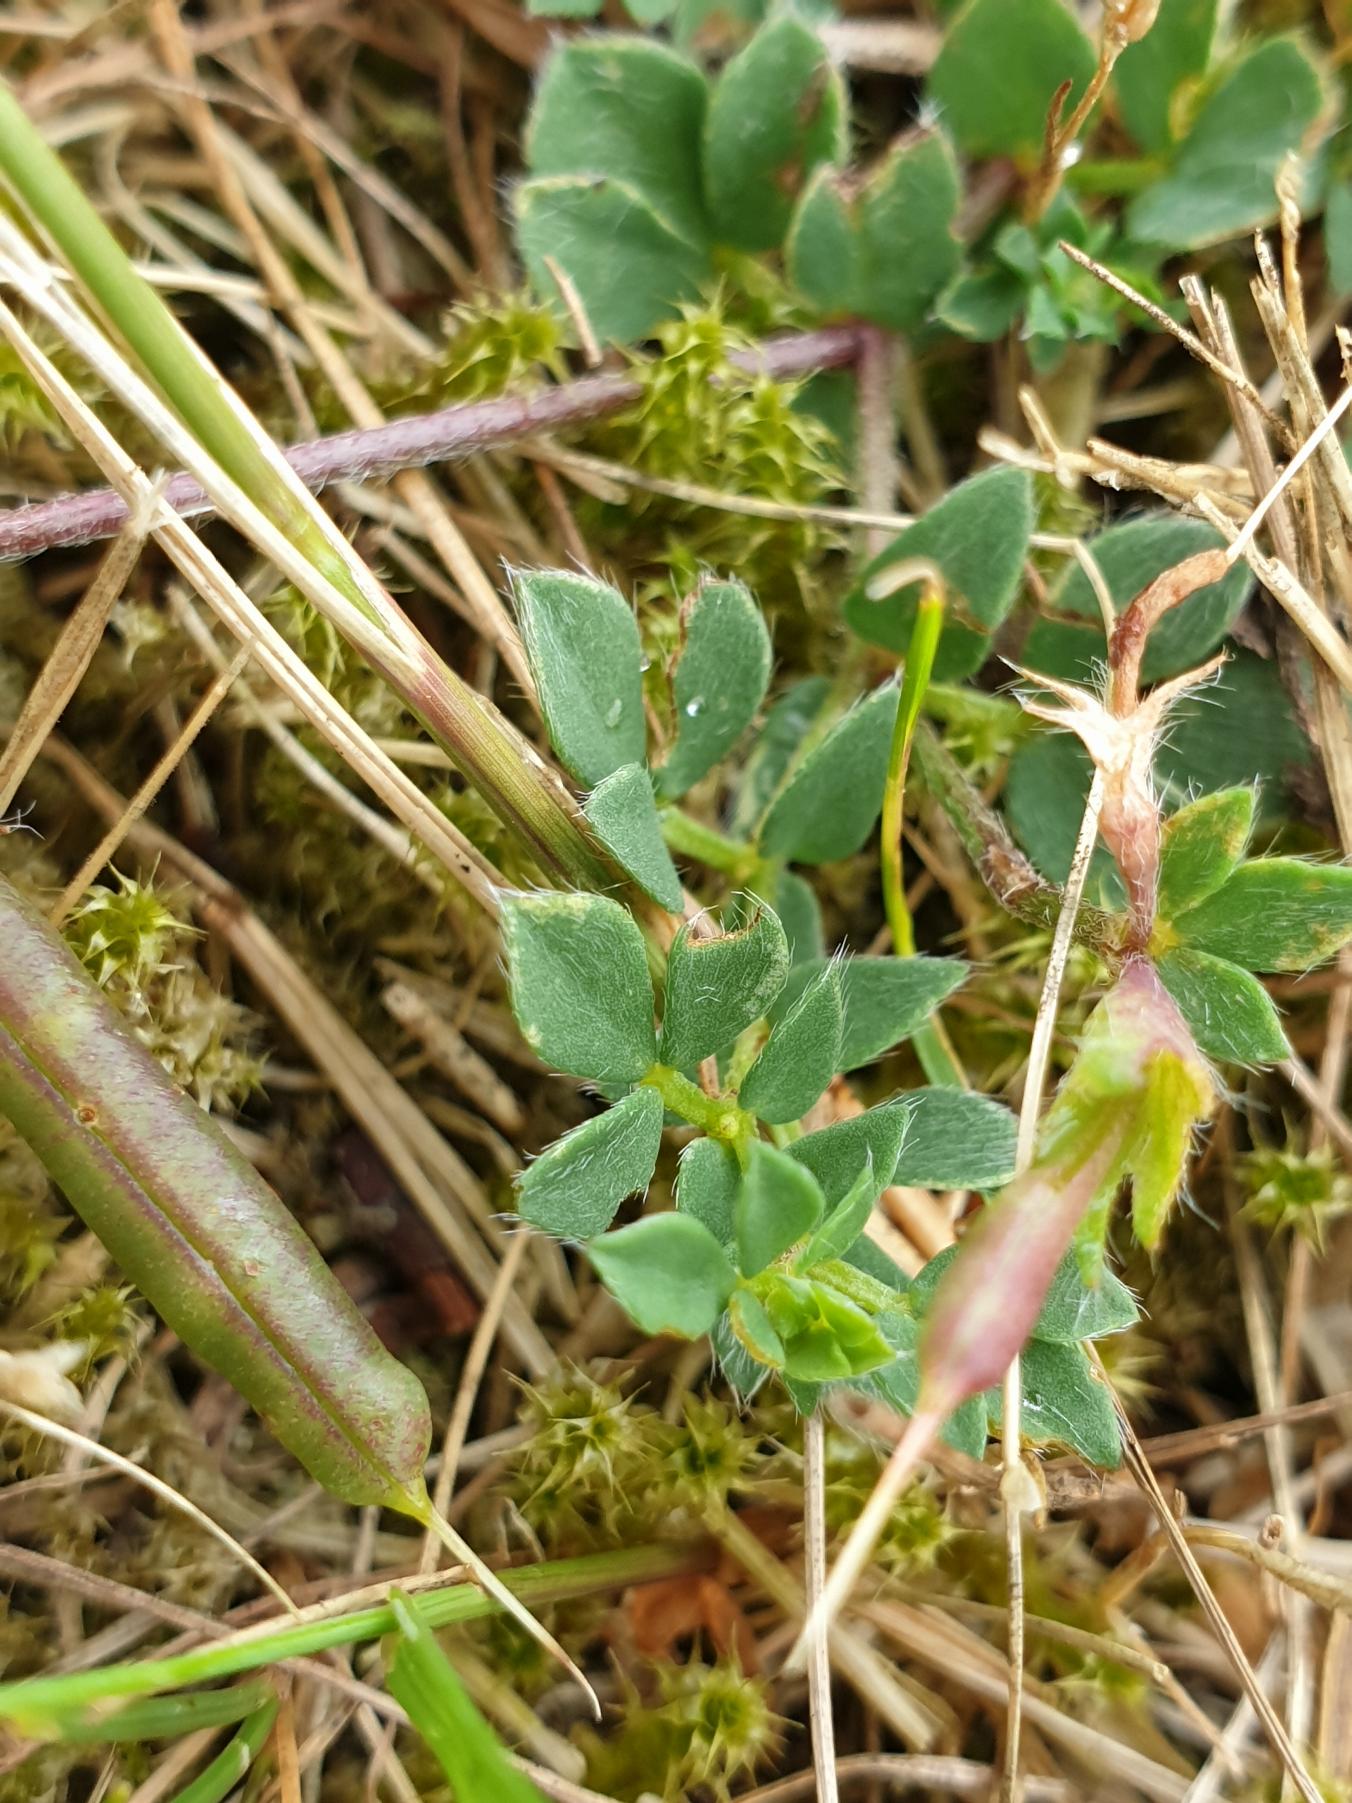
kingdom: Plantae
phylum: Tracheophyta
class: Magnoliopsida
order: Fabales
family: Fabaceae
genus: Lotus
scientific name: Lotus corniculatus
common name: Almindelig kællingetand
